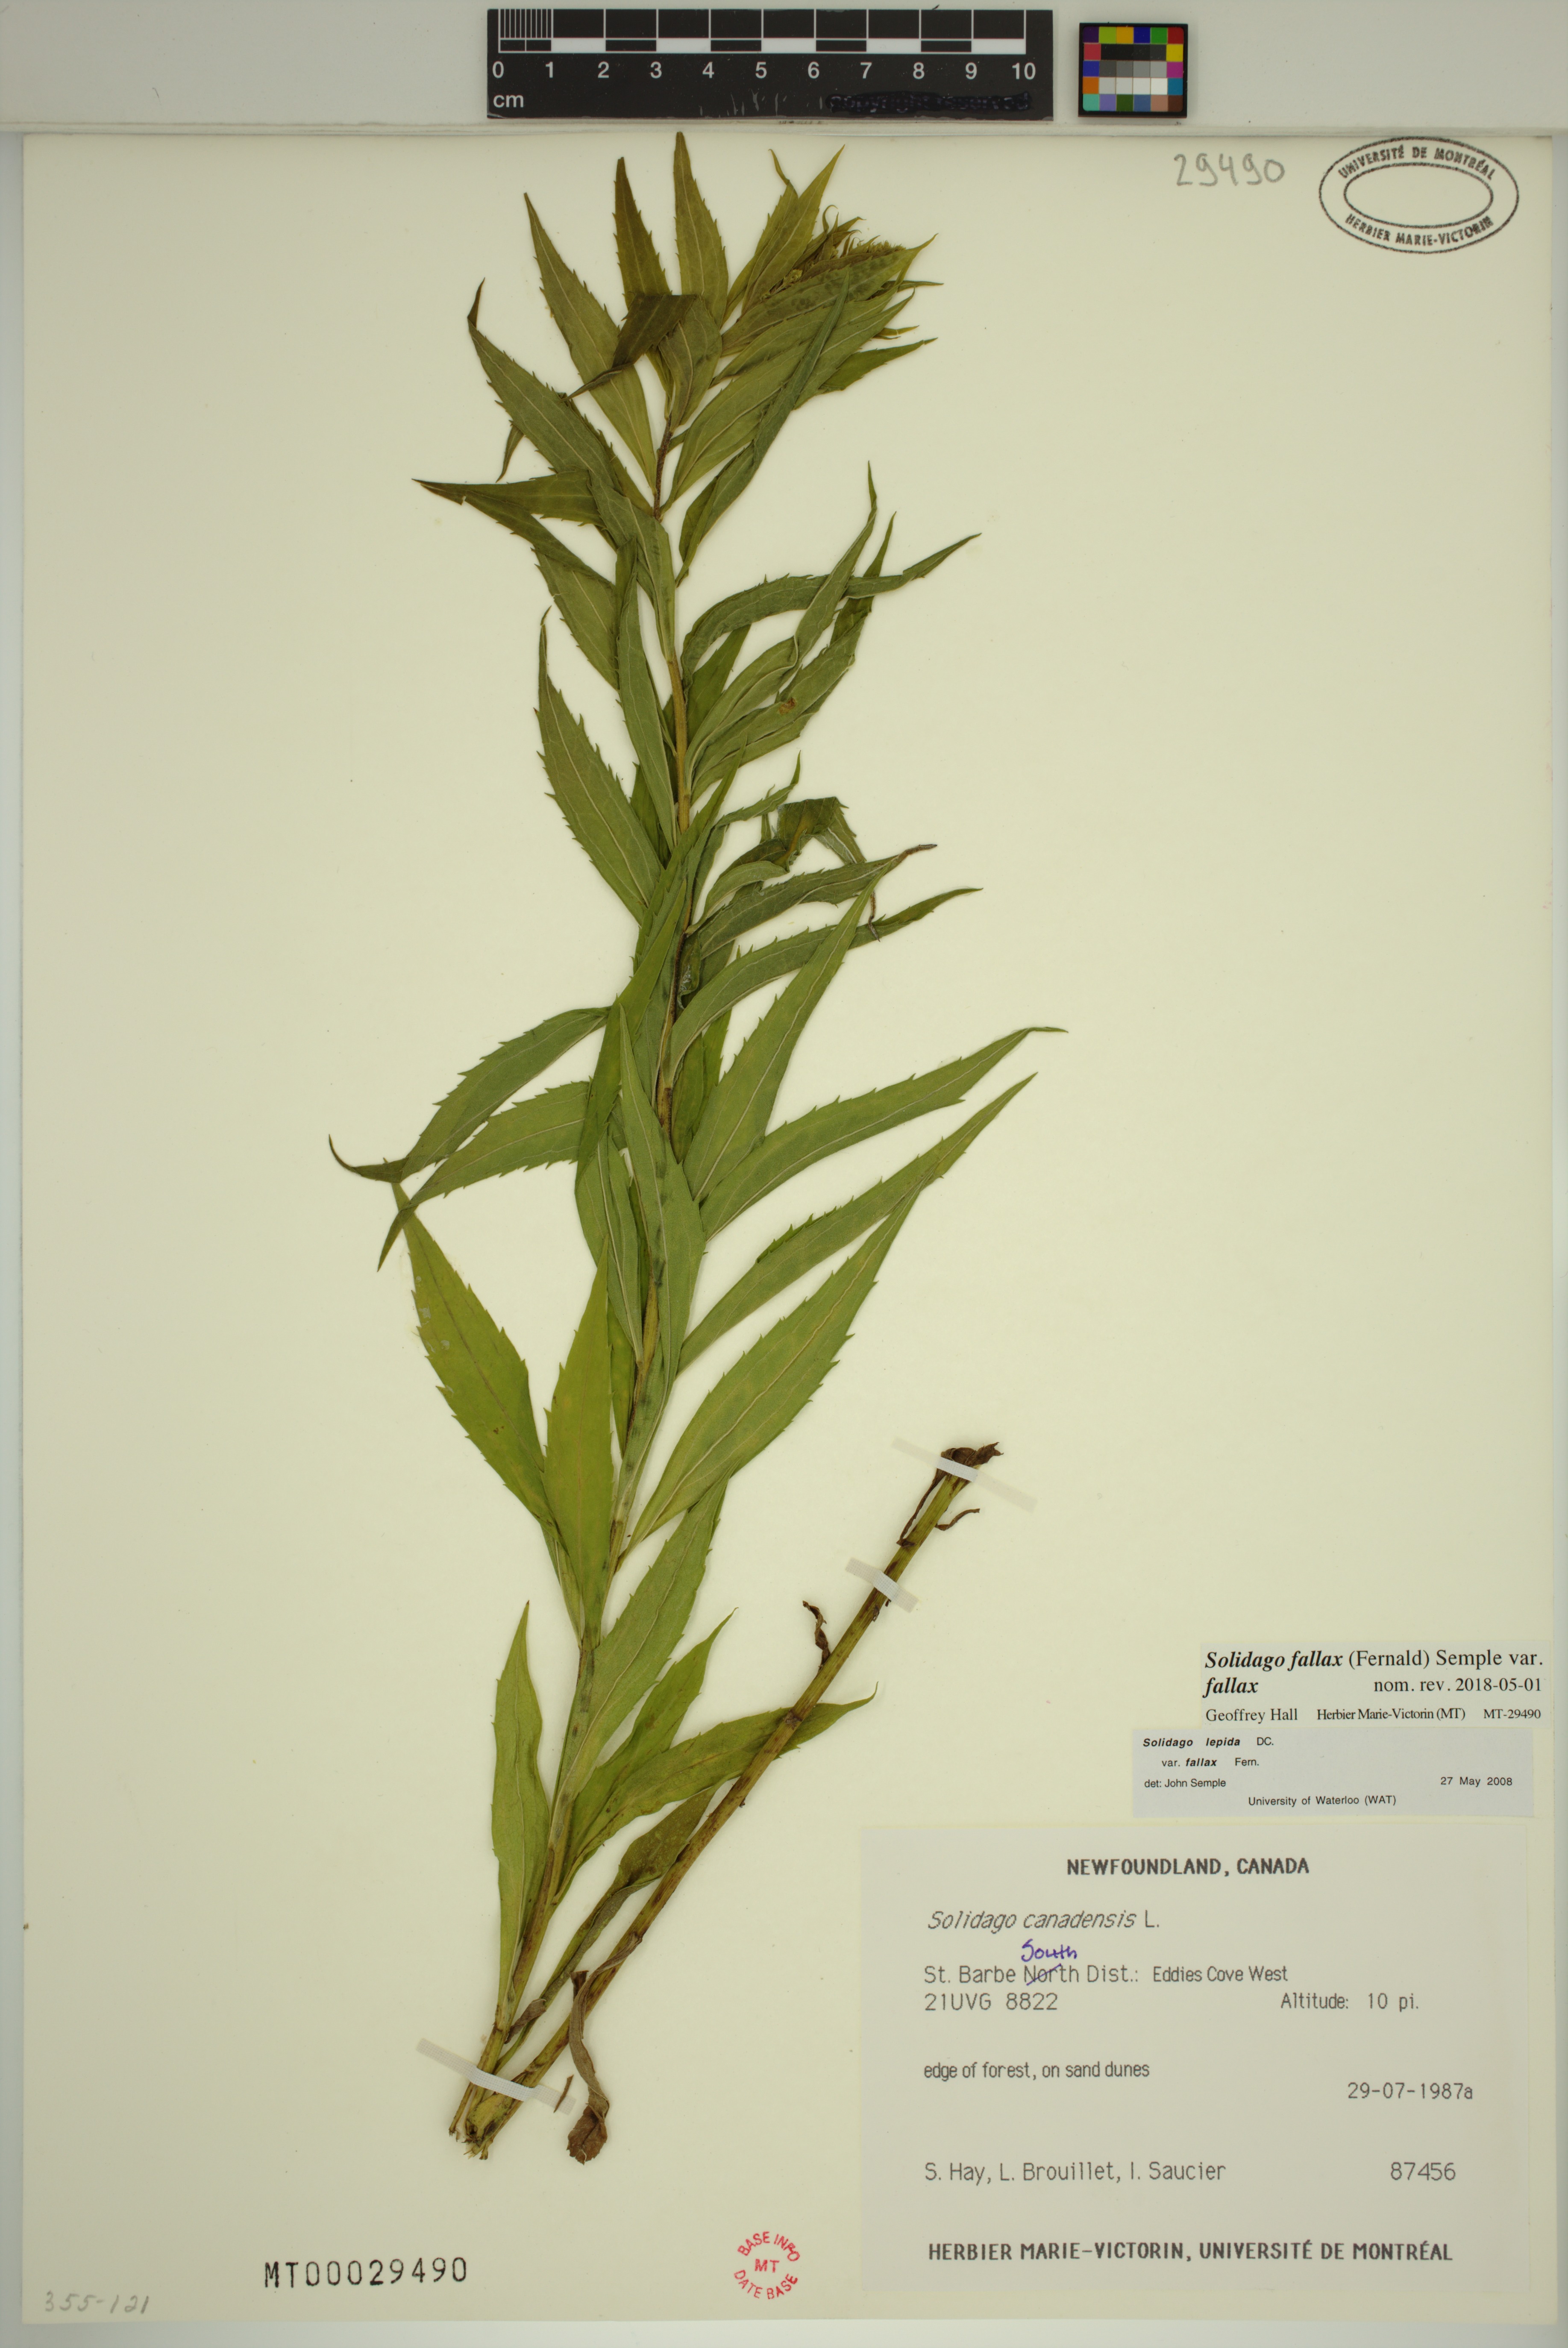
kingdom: Plantae
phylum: Tracheophyta
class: Magnoliopsida
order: Asterales
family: Asteraceae
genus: Solidago
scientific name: Solidago brendae
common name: Brenda's goldenrod
